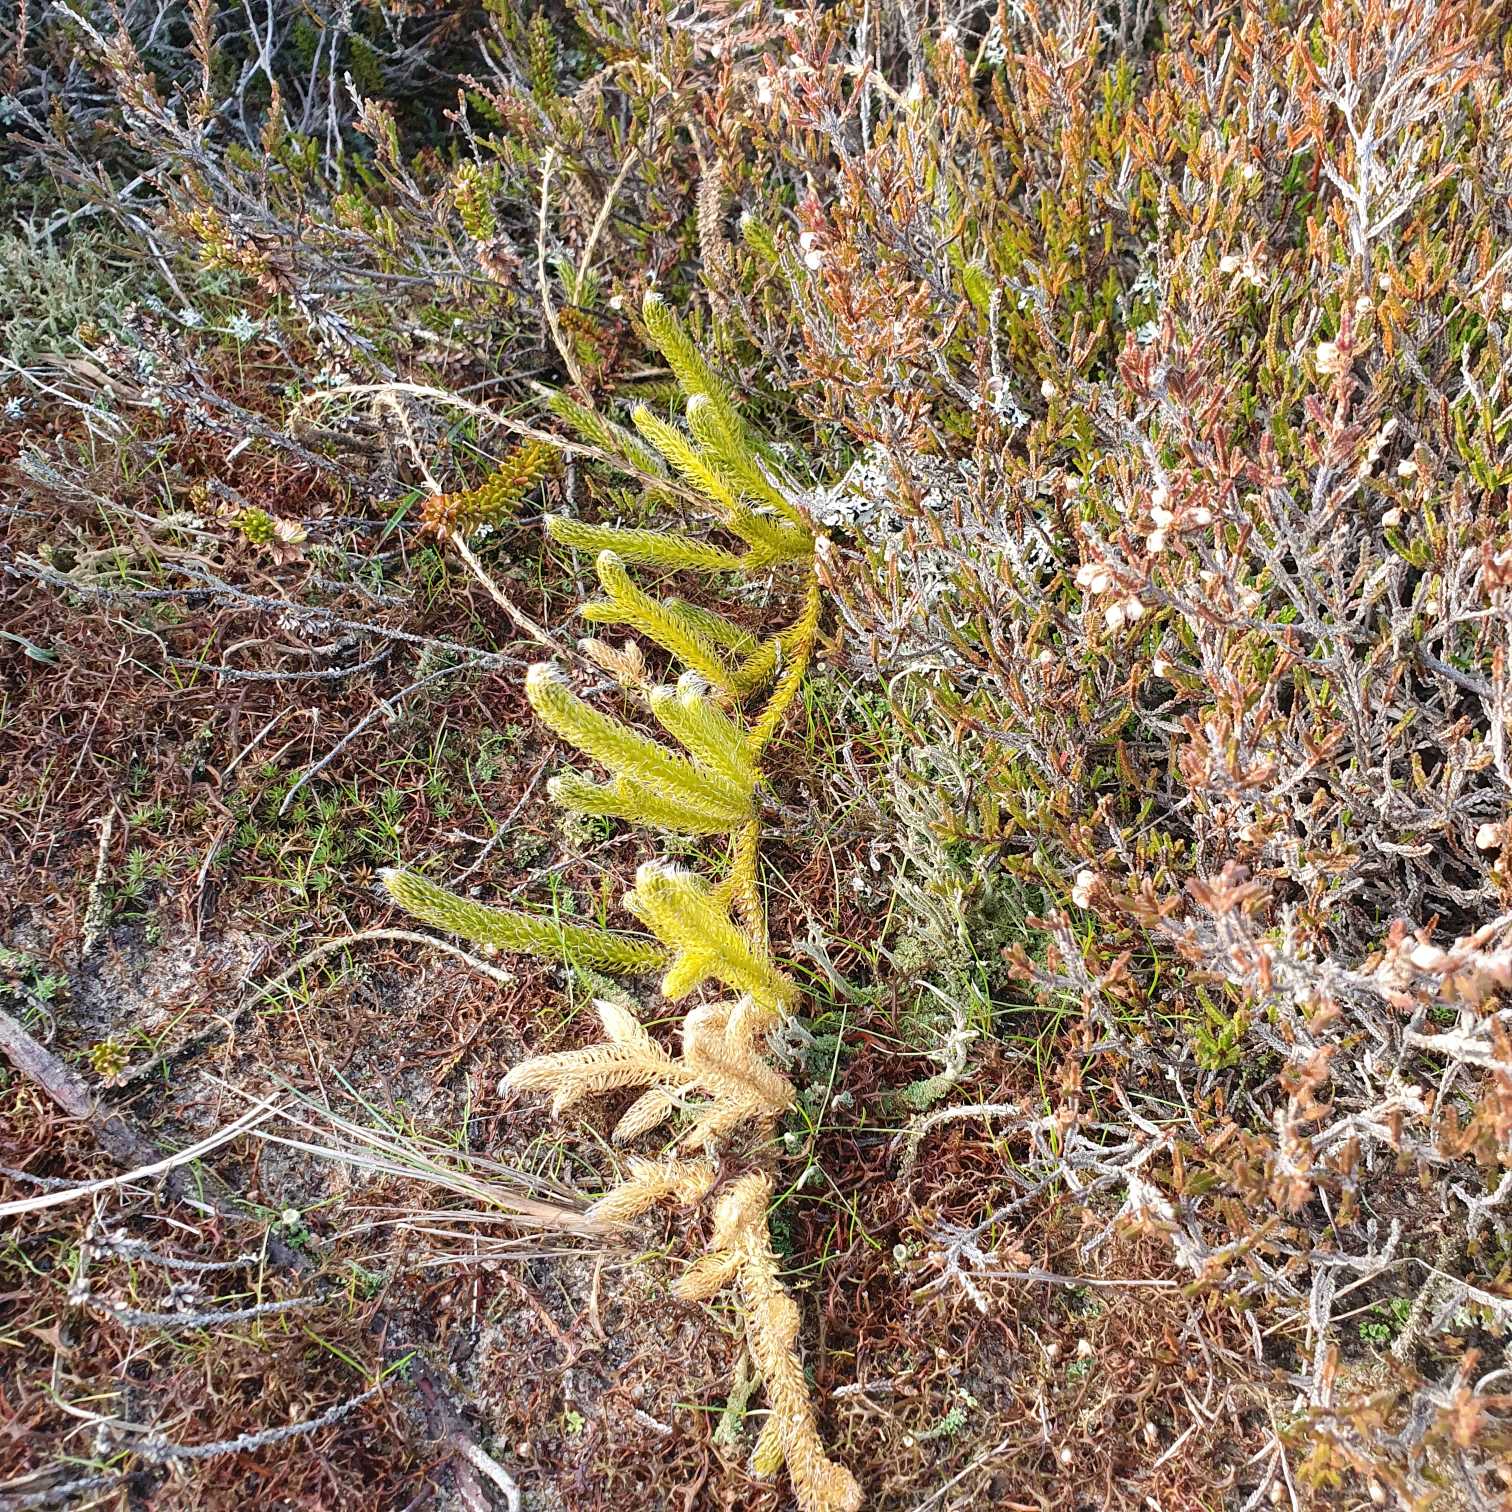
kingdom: Plantae
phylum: Tracheophyta
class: Lycopodiopsida
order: Lycopodiales
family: Lycopodiaceae
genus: Lycopodium
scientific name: Lycopodium clavatum
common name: Almindelig ulvefod
